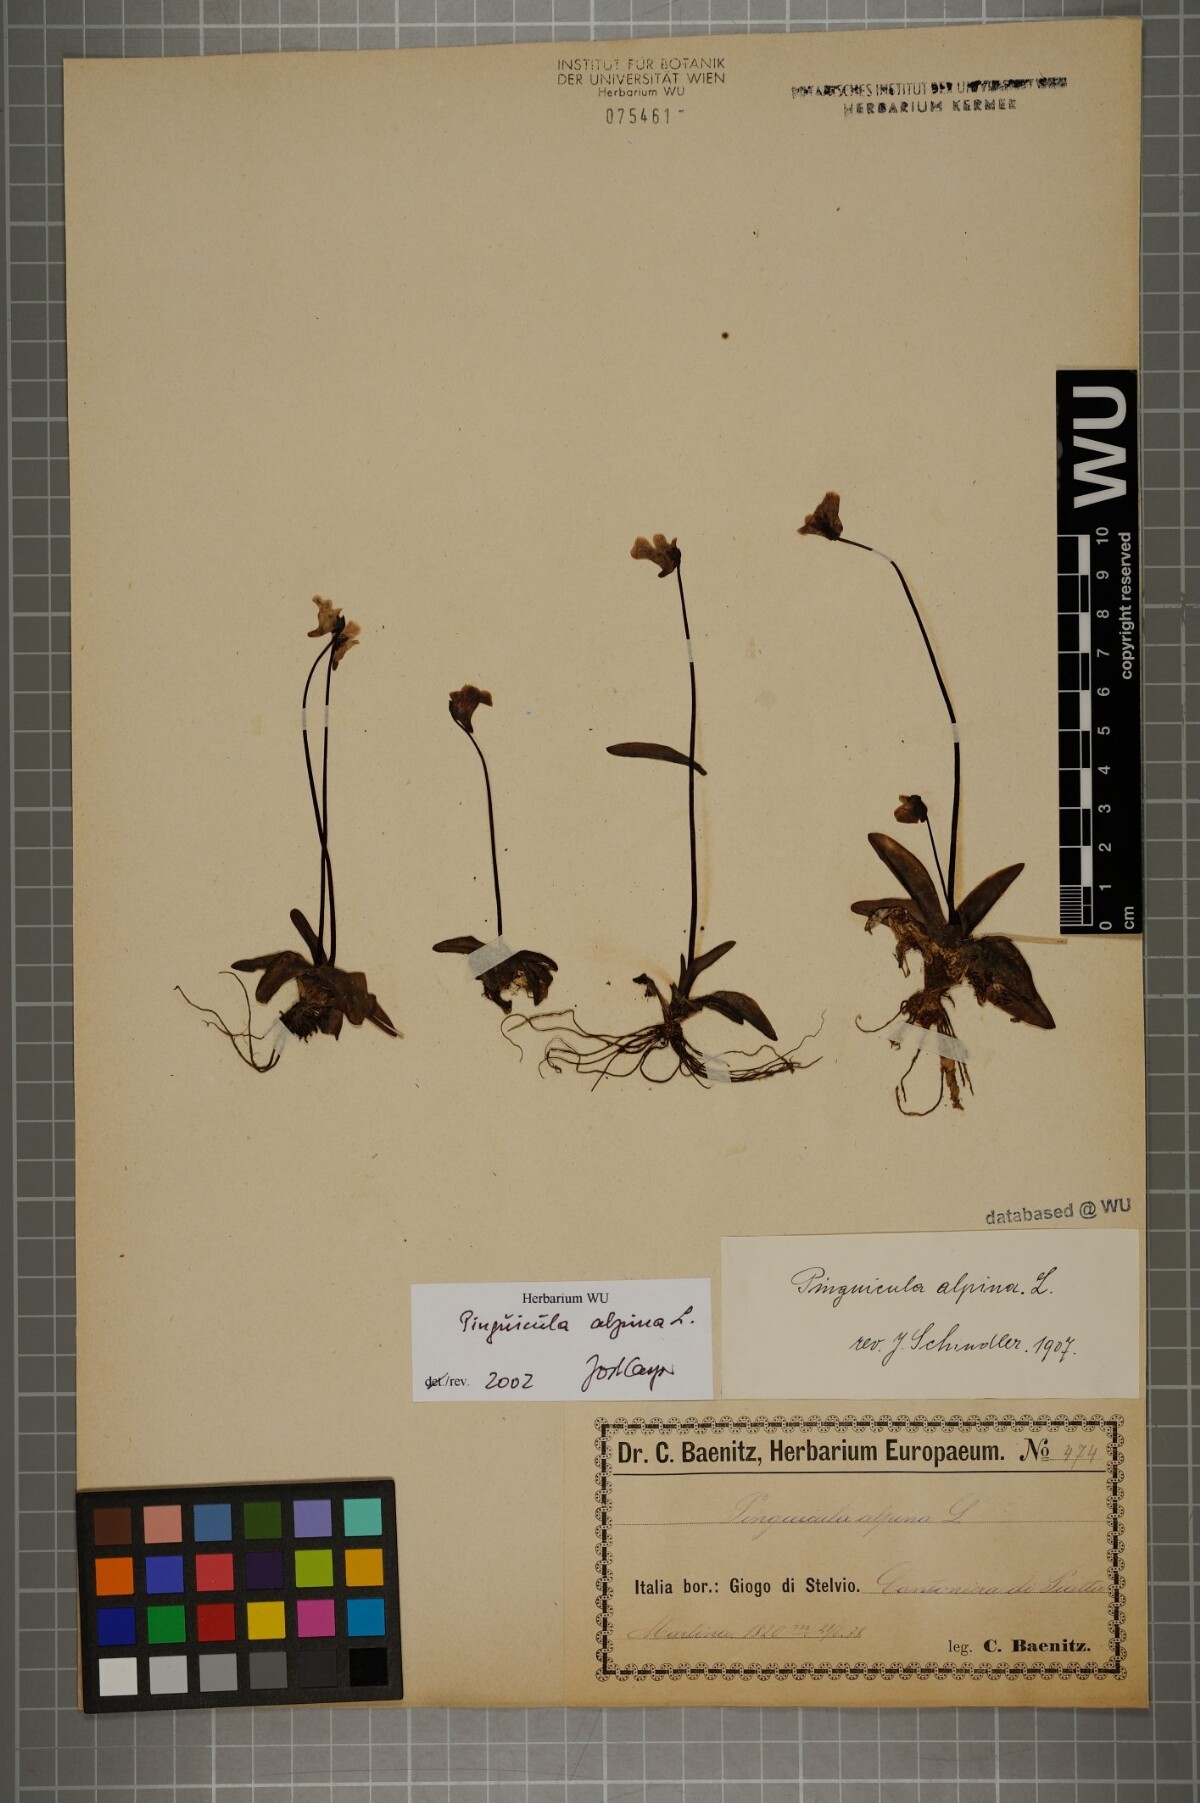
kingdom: Plantae
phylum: Tracheophyta
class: Magnoliopsida
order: Lamiales
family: Lentibulariaceae
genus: Pinguicula
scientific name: Pinguicula alpina
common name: Alpine butterwort
